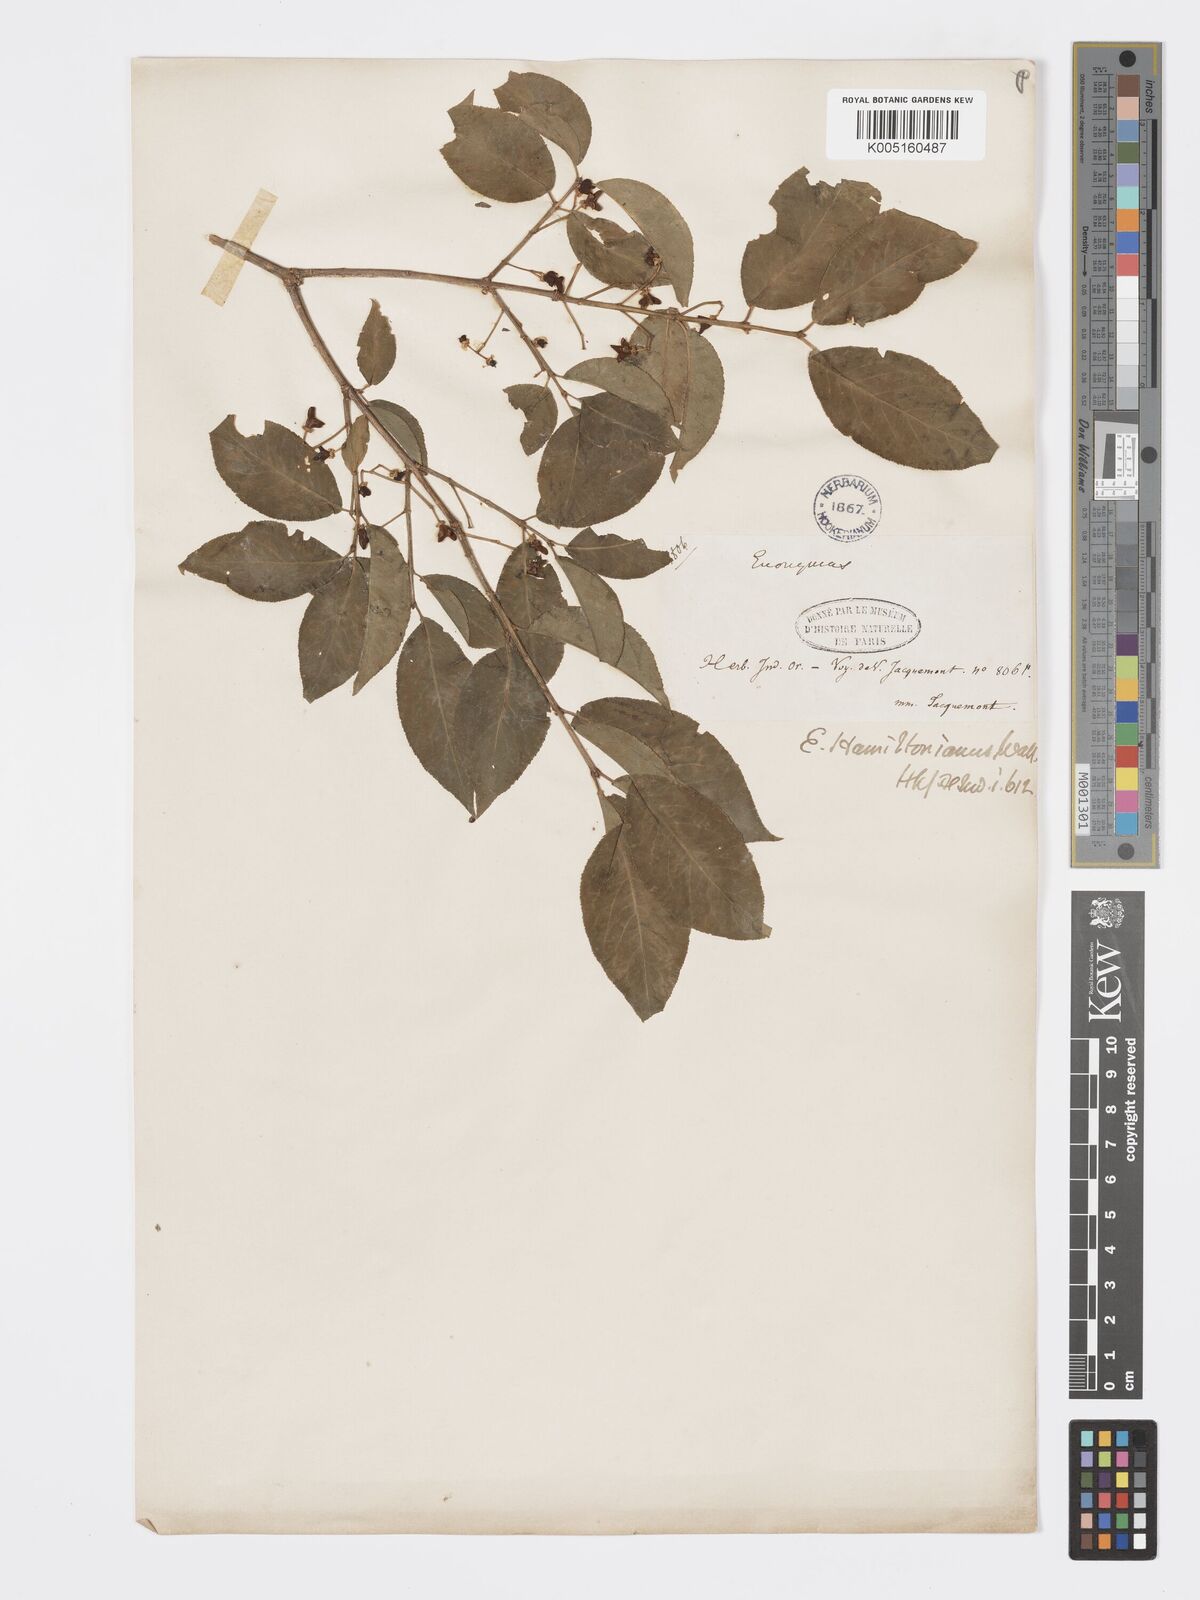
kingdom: Plantae
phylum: Tracheophyta
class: Magnoliopsida
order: Celastrales
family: Celastraceae
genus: Euonymus
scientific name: Euonymus
